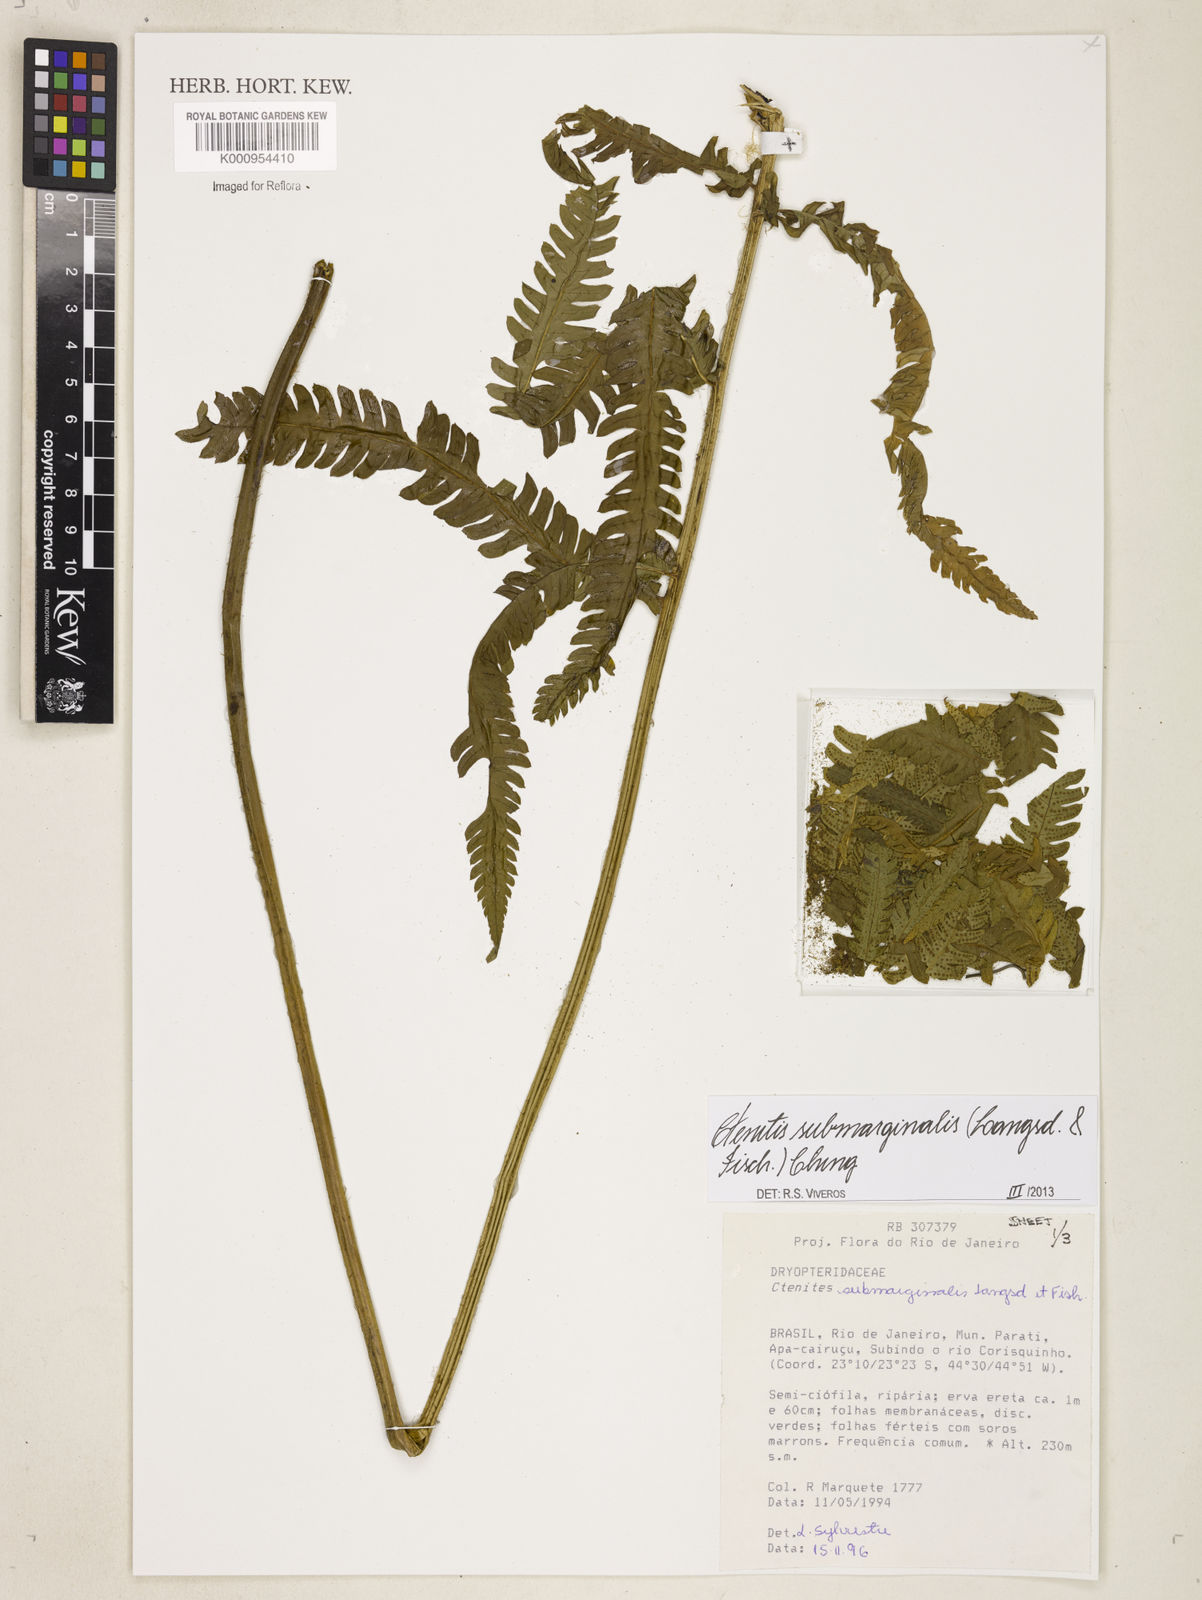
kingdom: Plantae
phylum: Tracheophyta
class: Polypodiopsida
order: Polypodiales
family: Dryopteridaceae
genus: Ctenitis
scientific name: Ctenitis submarginalis
